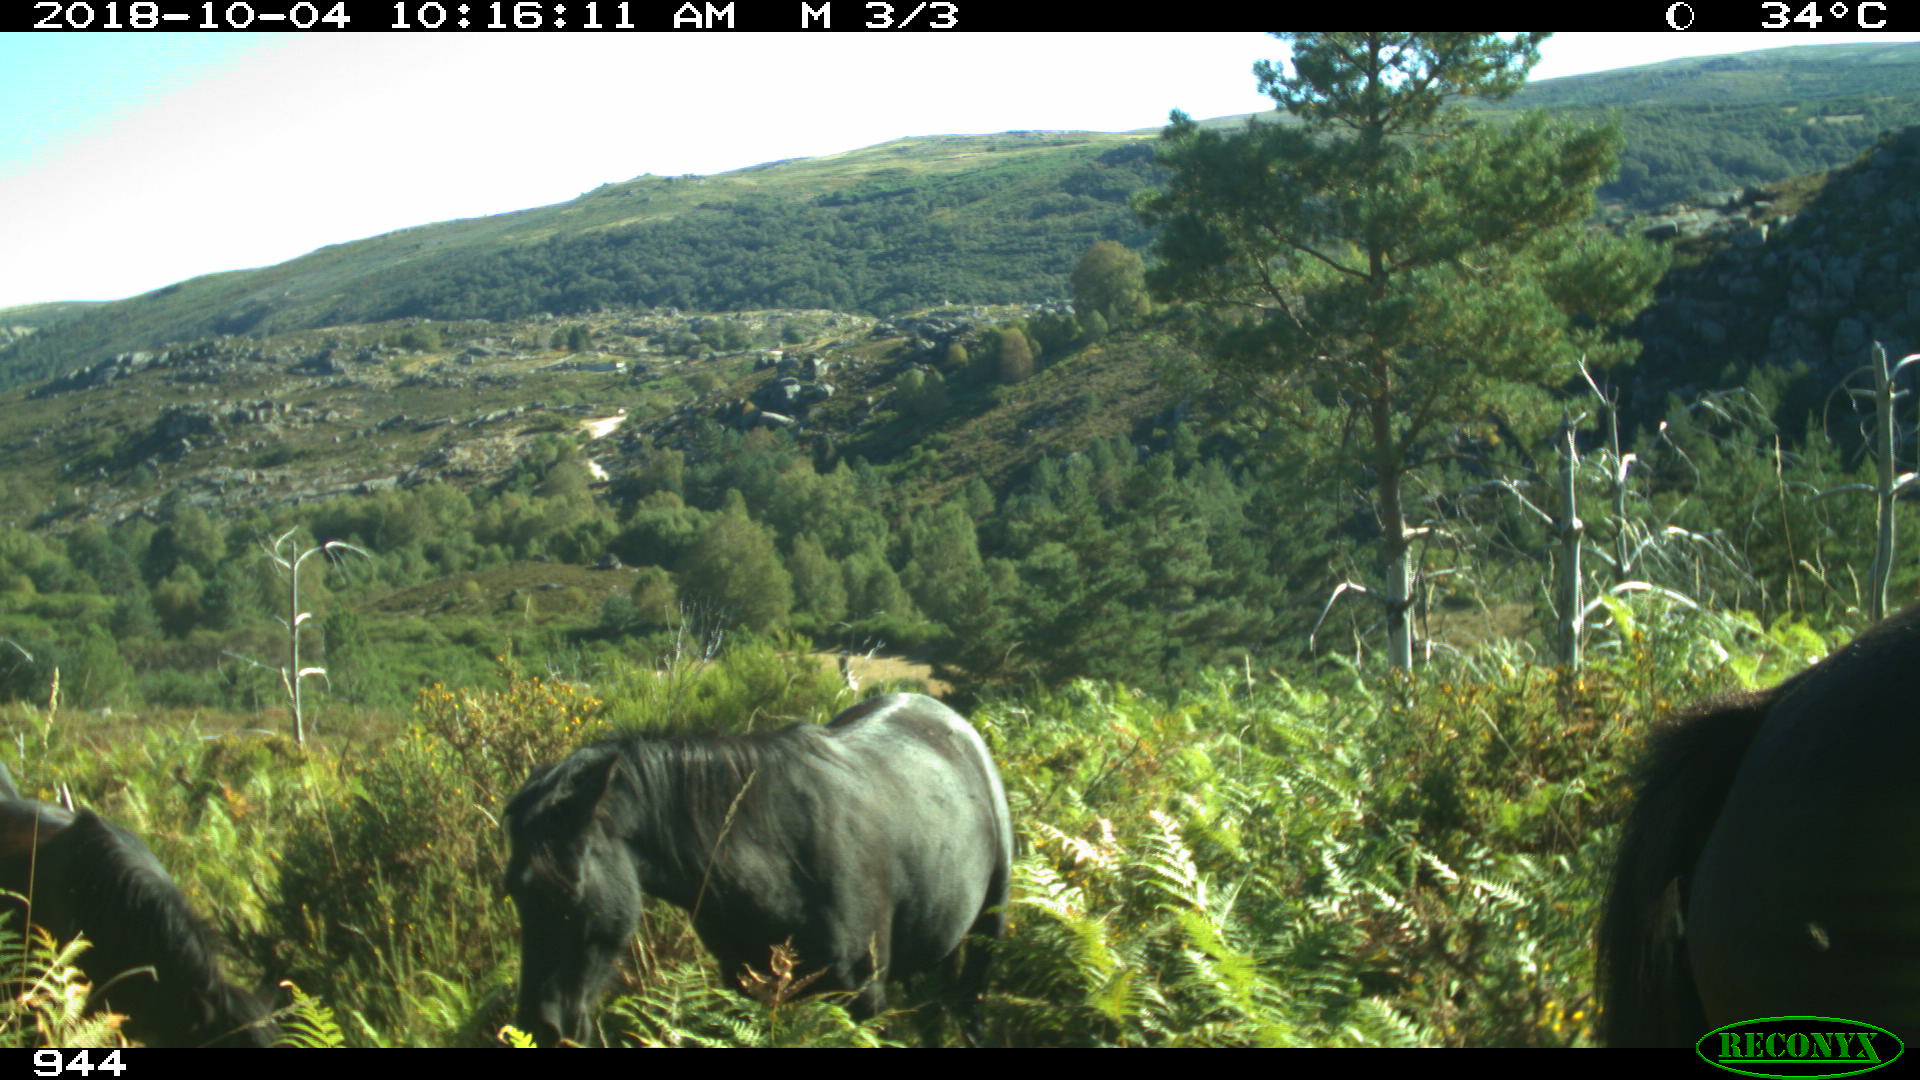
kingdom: Animalia
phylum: Chordata
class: Mammalia
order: Perissodactyla
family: Equidae
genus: Equus
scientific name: Equus caballus
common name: Horse
